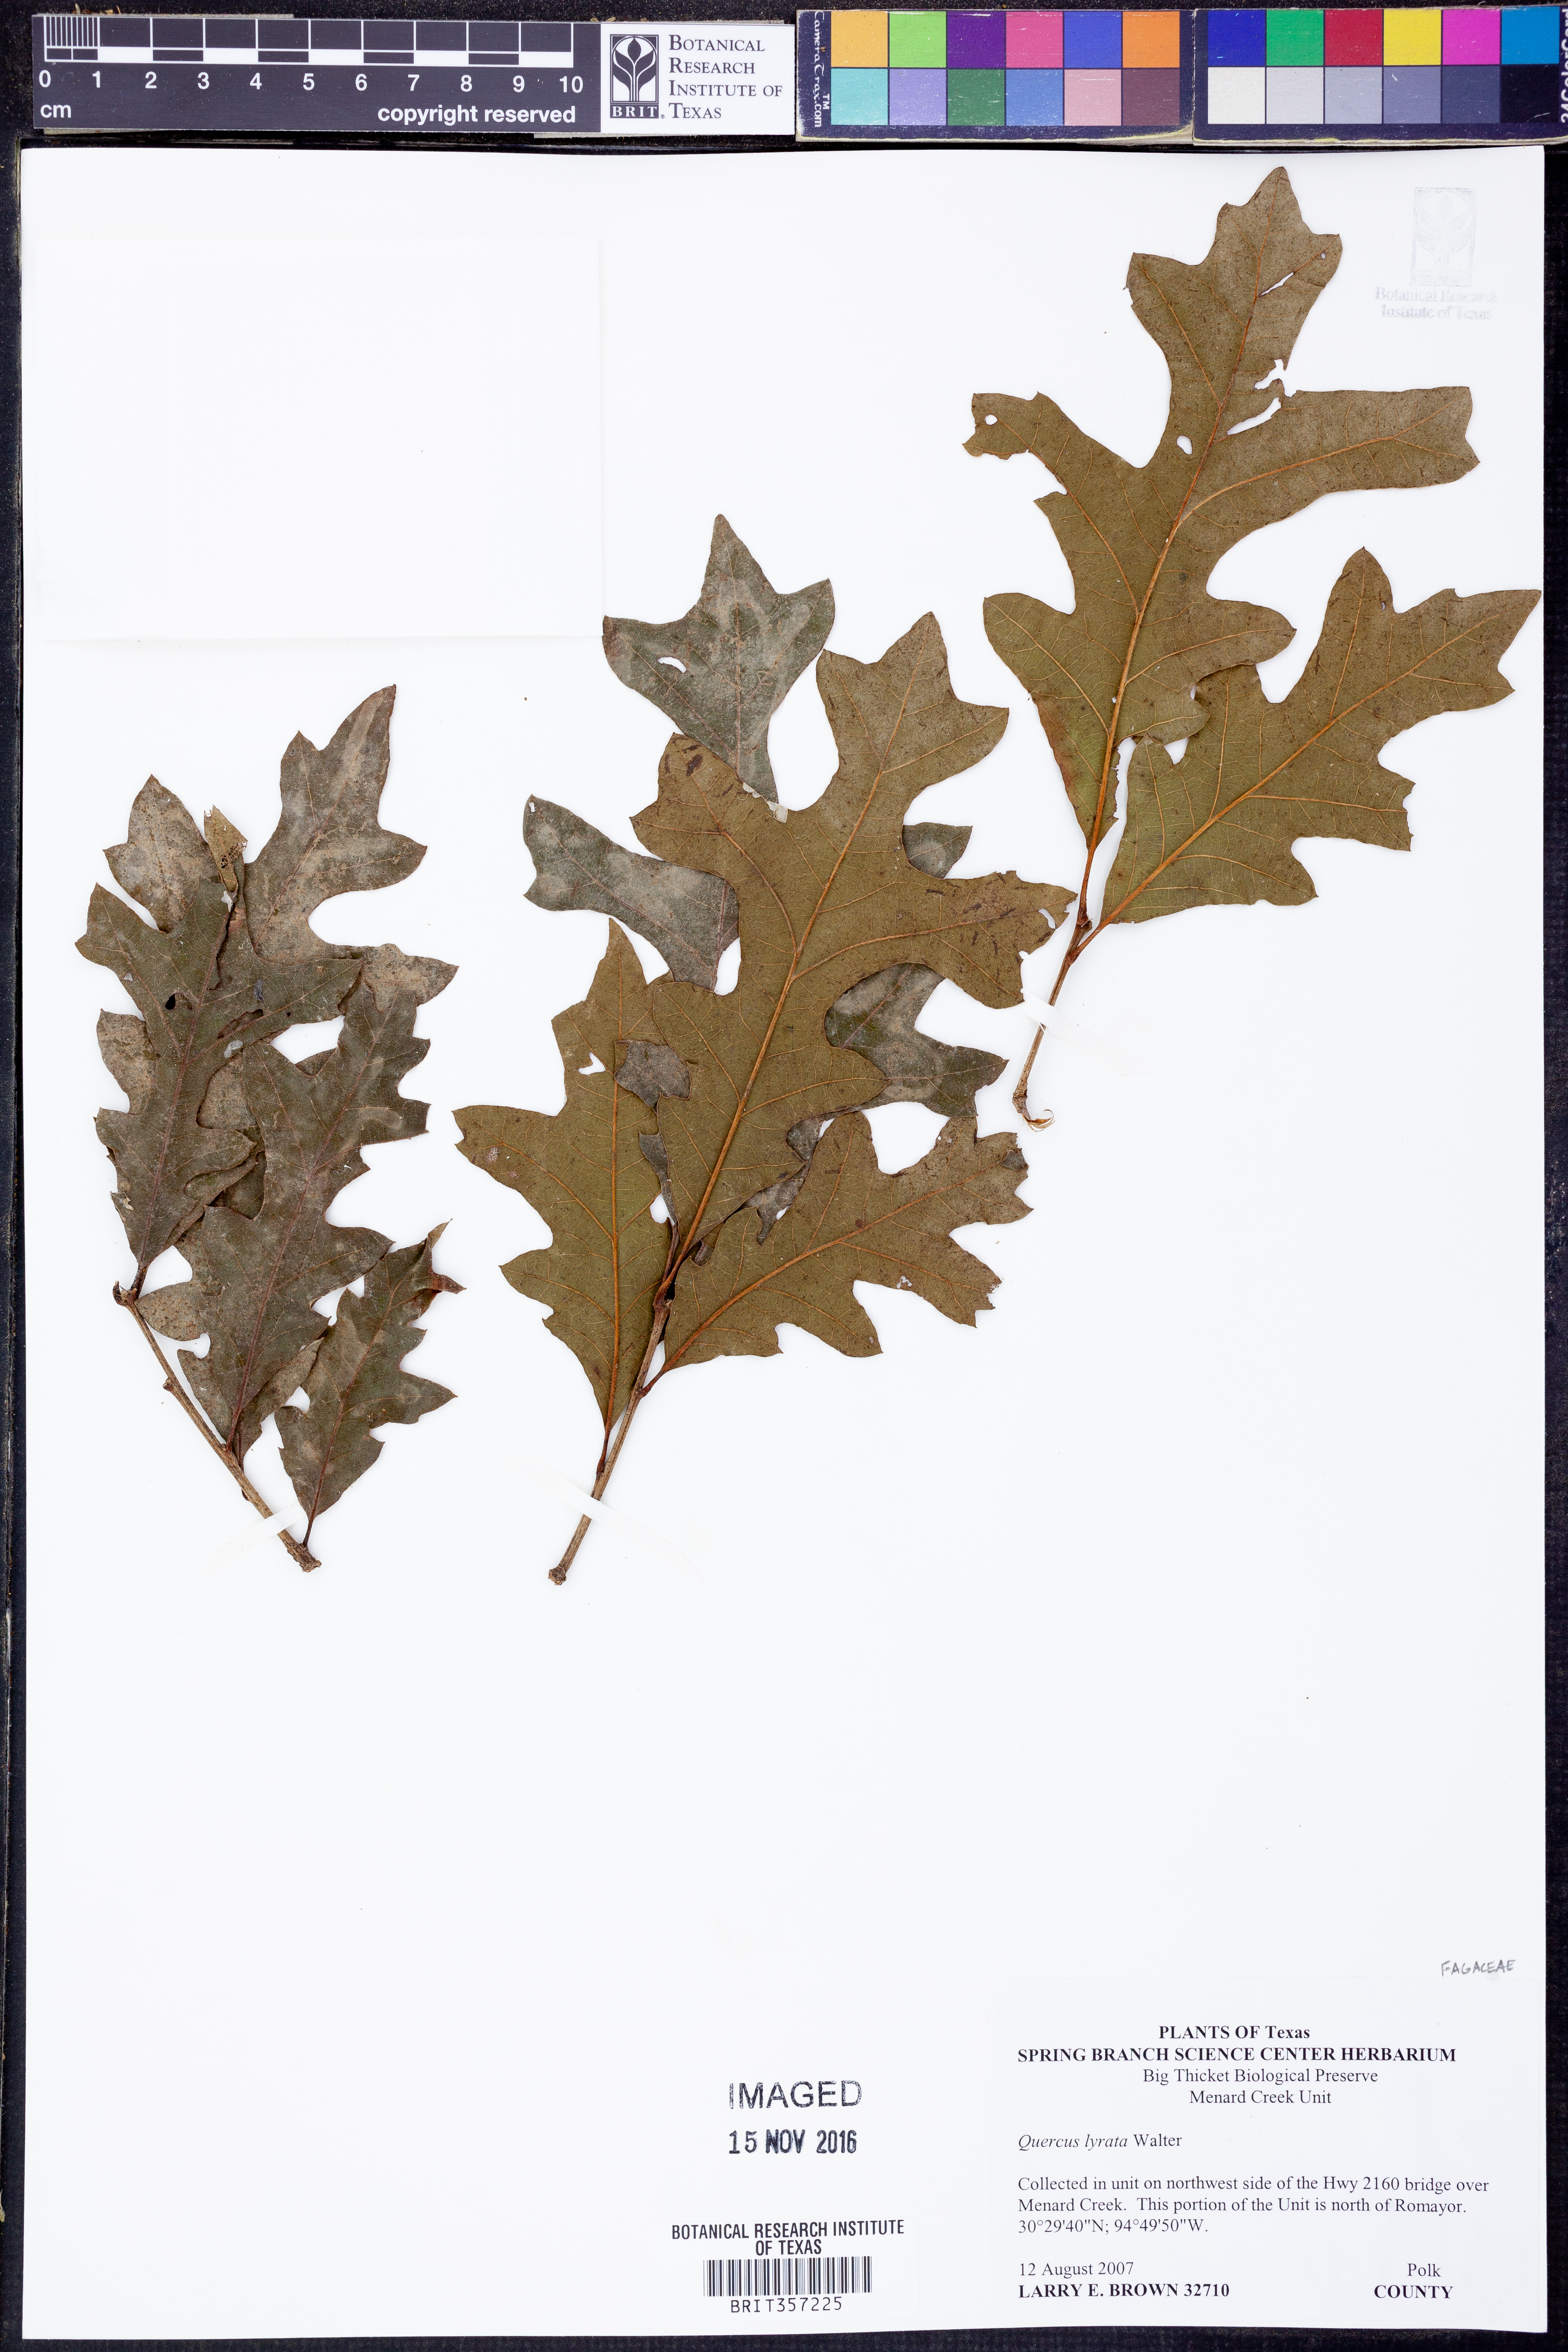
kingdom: Plantae
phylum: Tracheophyta
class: Magnoliopsida
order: Fagales
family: Fagaceae
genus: Quercus
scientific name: Quercus lyrata
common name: Overcup oak
